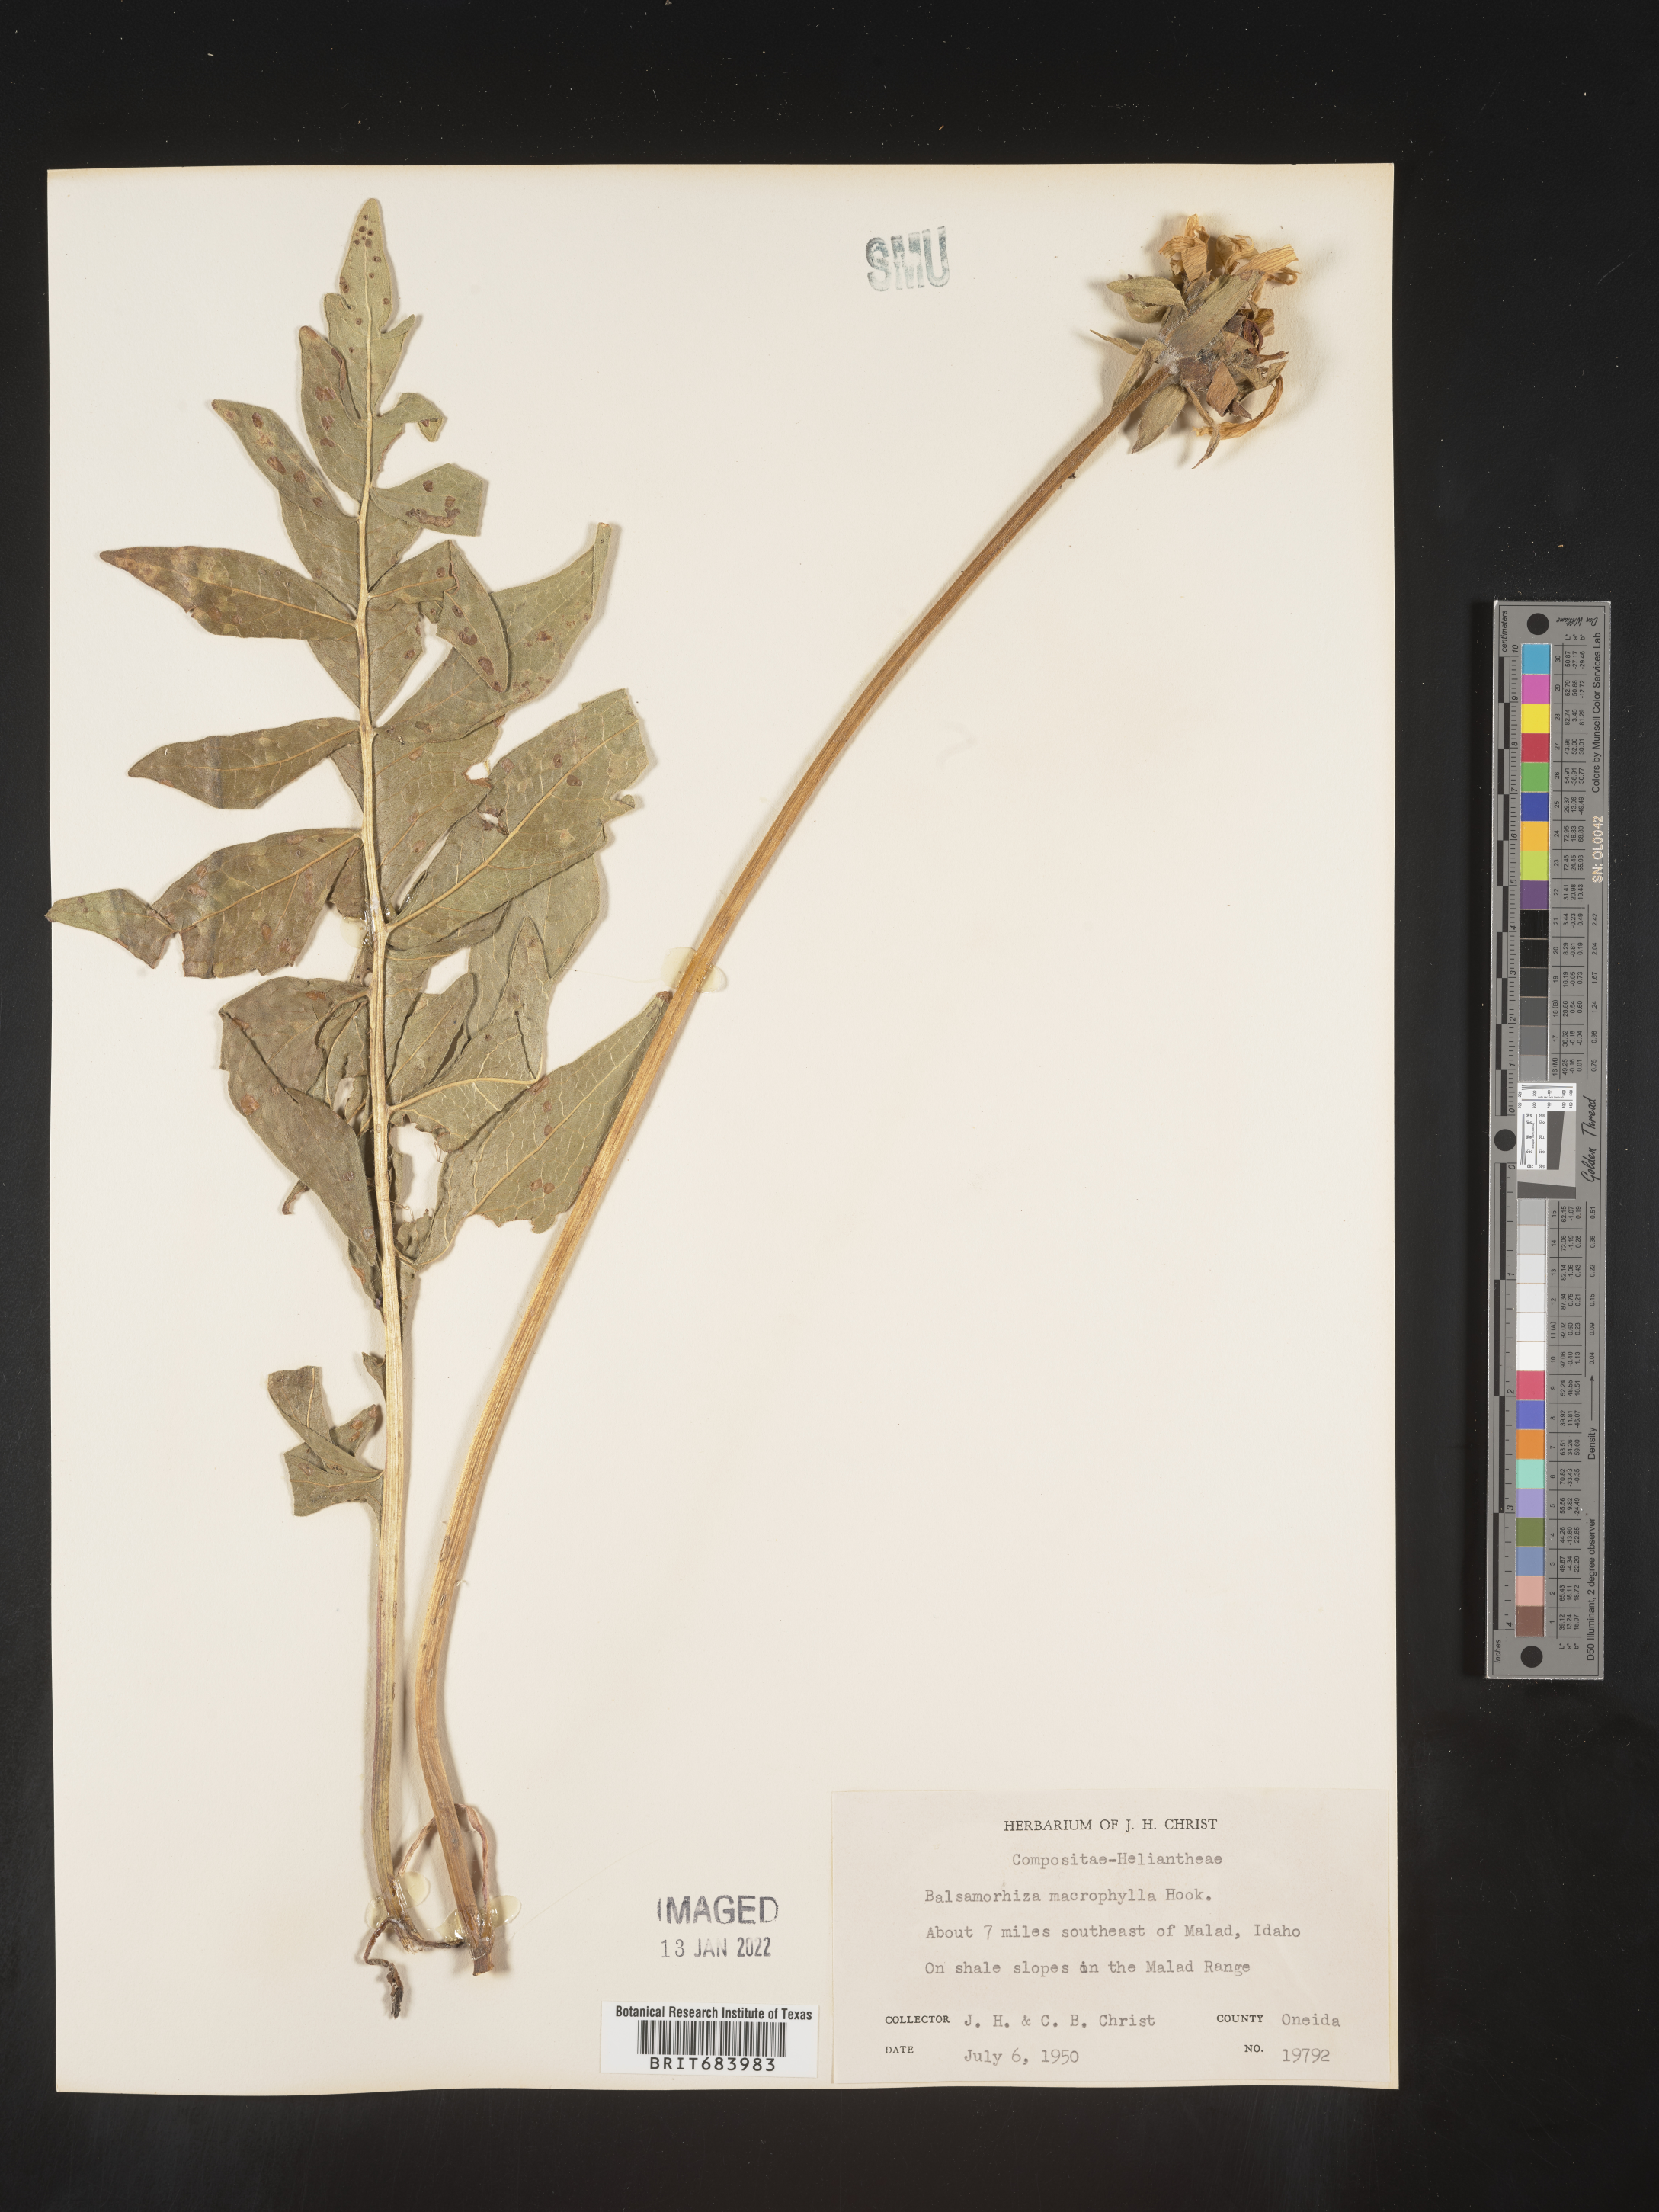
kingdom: Plantae
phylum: Tracheophyta
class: Magnoliopsida
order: Asterales
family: Asteraceae
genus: Balsamorhiza
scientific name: Balsamorhiza
